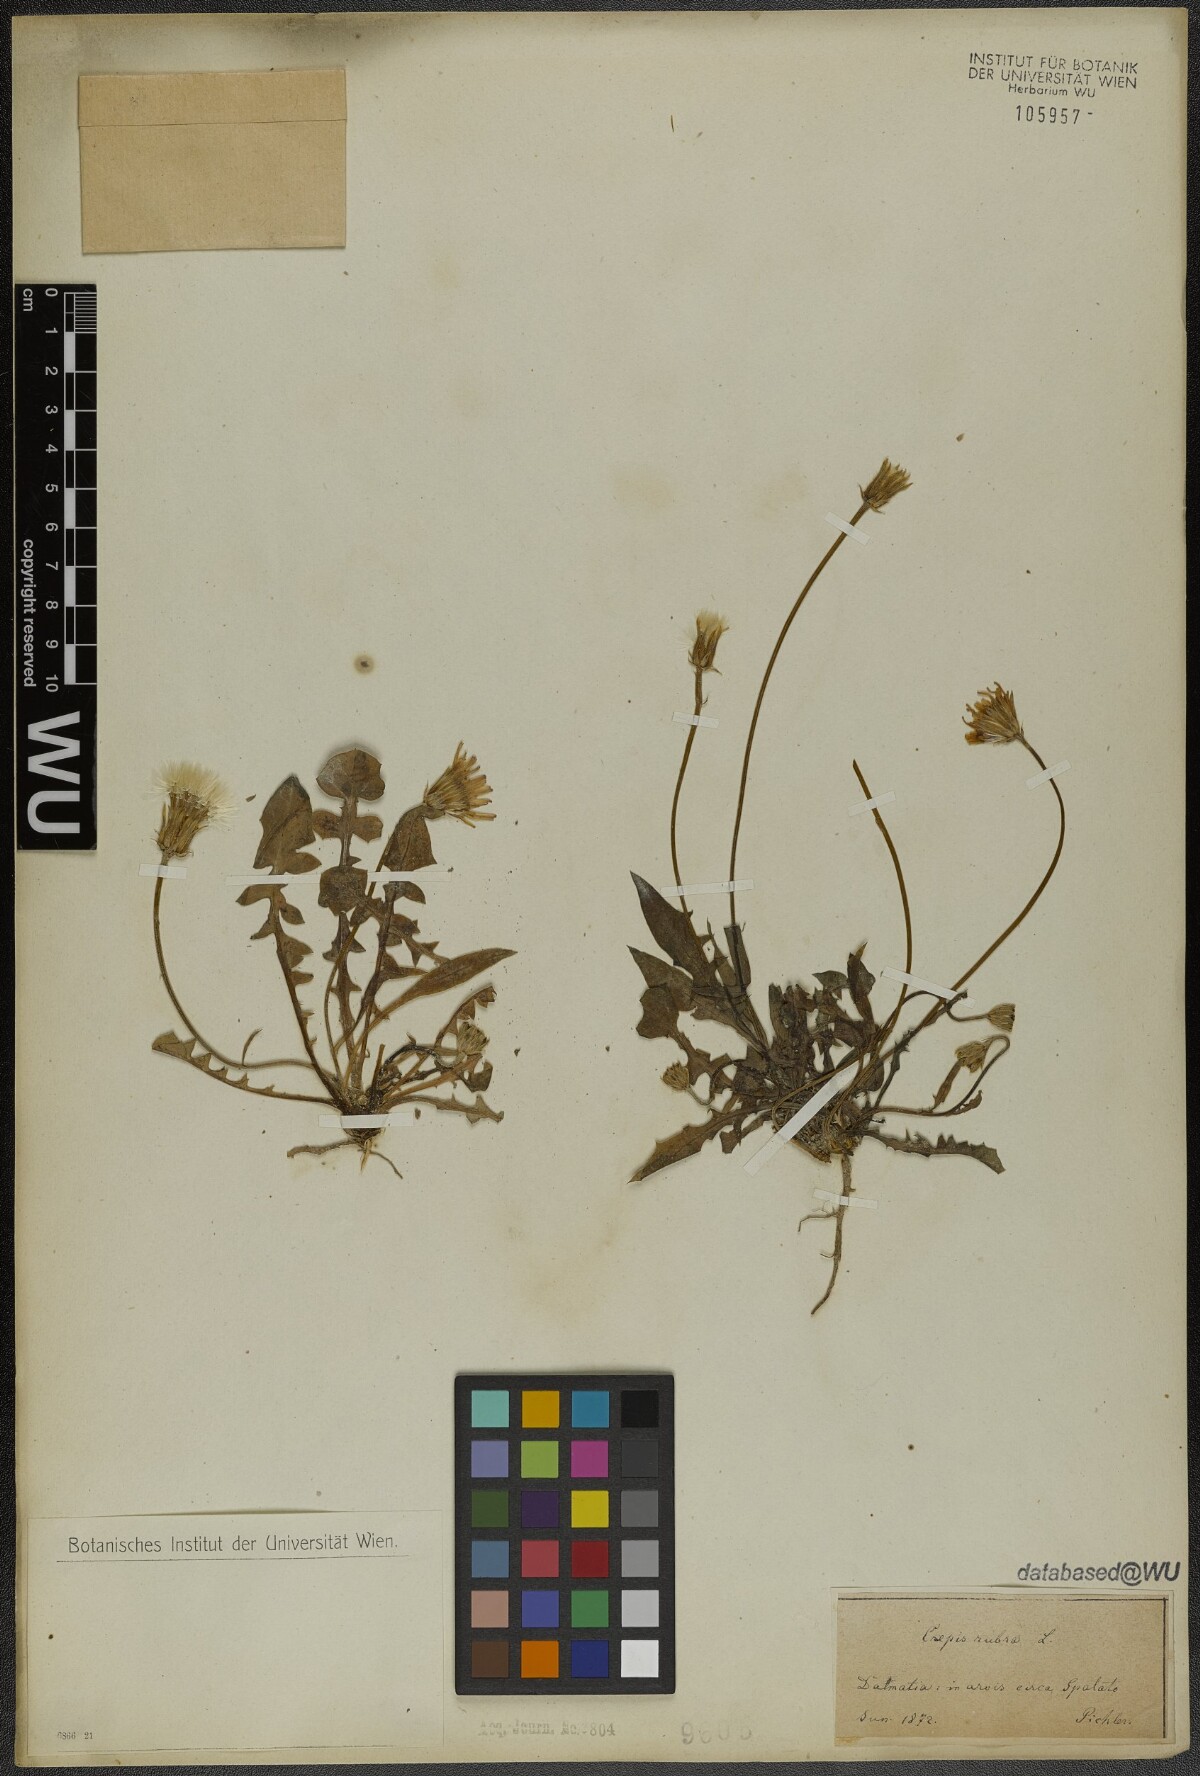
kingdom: Plantae
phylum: Tracheophyta
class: Magnoliopsida
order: Asterales
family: Asteraceae
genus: Crepis
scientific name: Crepis rubra
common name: Pink hawk's-beard
